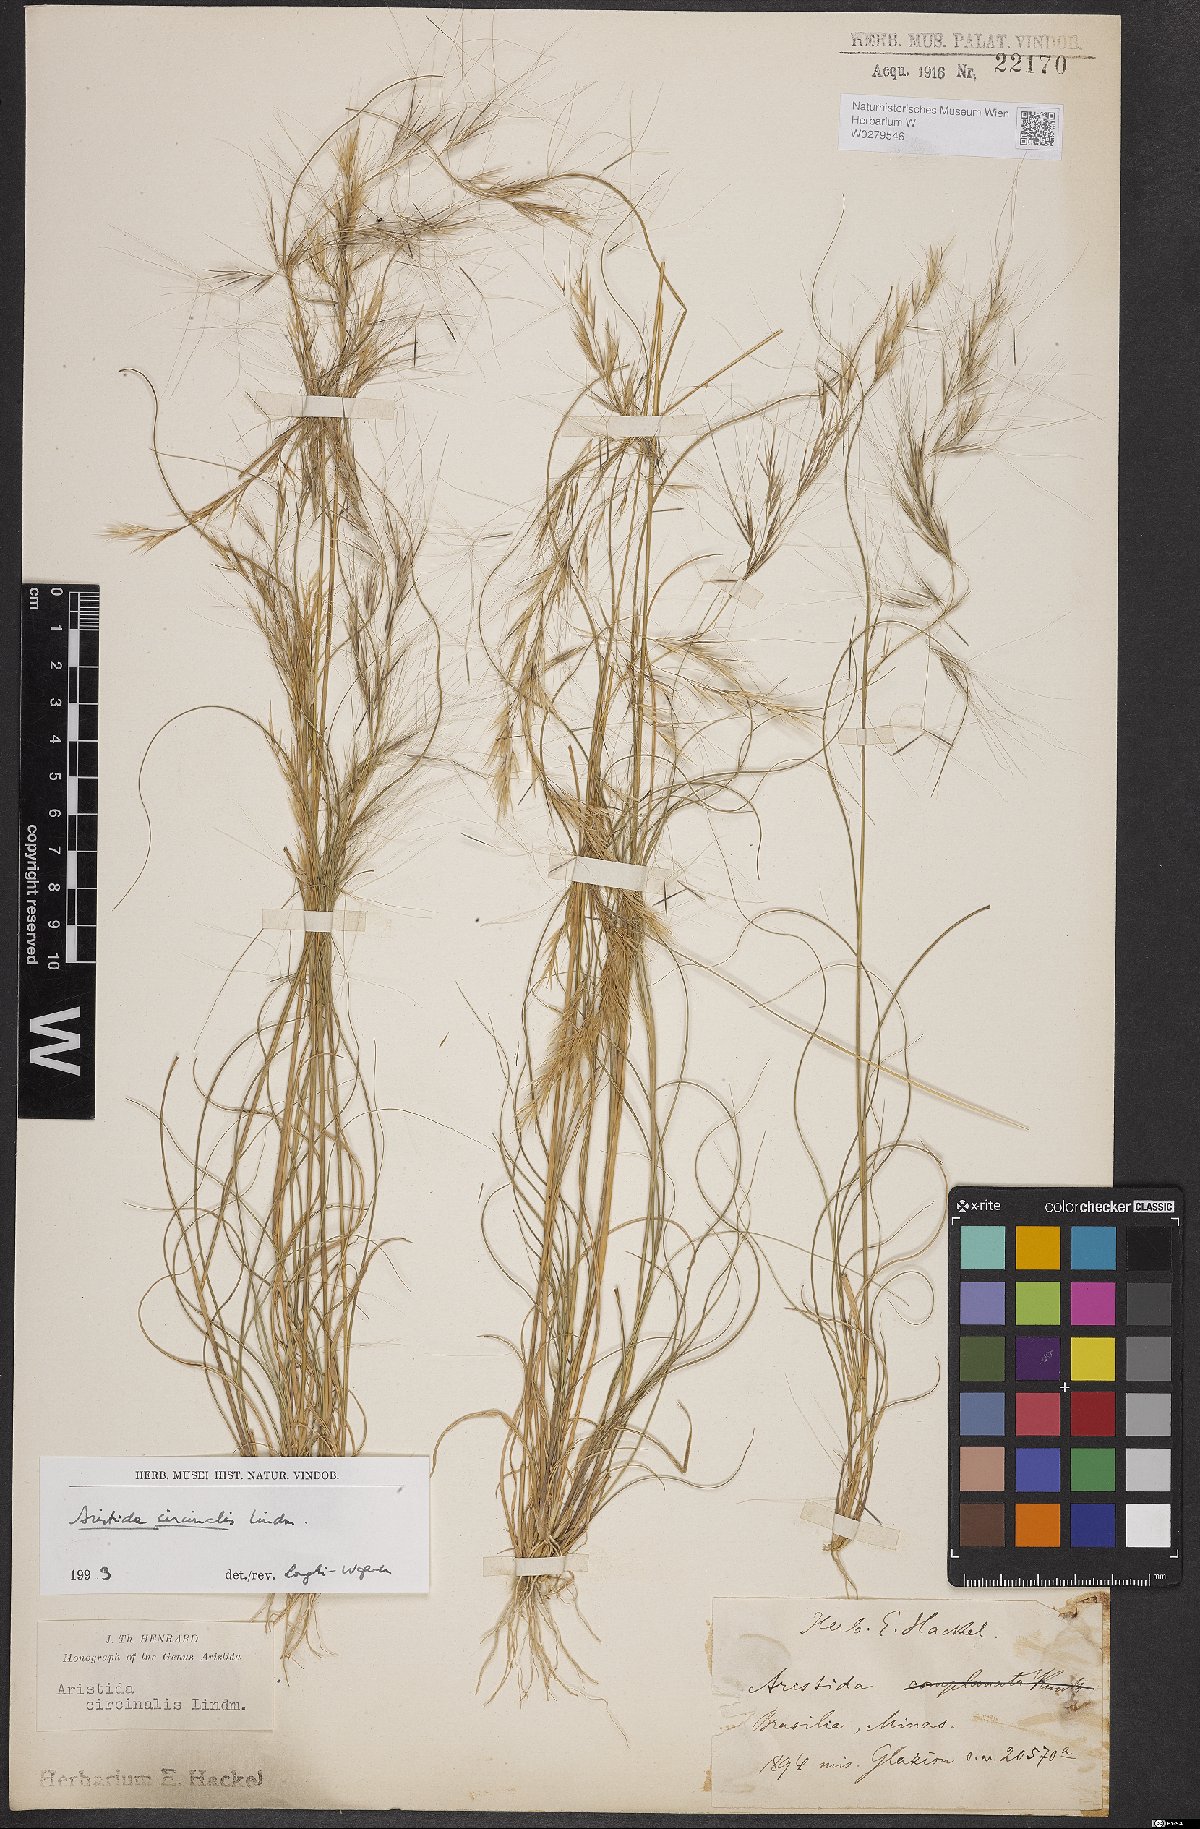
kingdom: Plantae
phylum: Tracheophyta
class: Liliopsida
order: Poales
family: Poaceae
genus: Aristida
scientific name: Aristida circinalis
